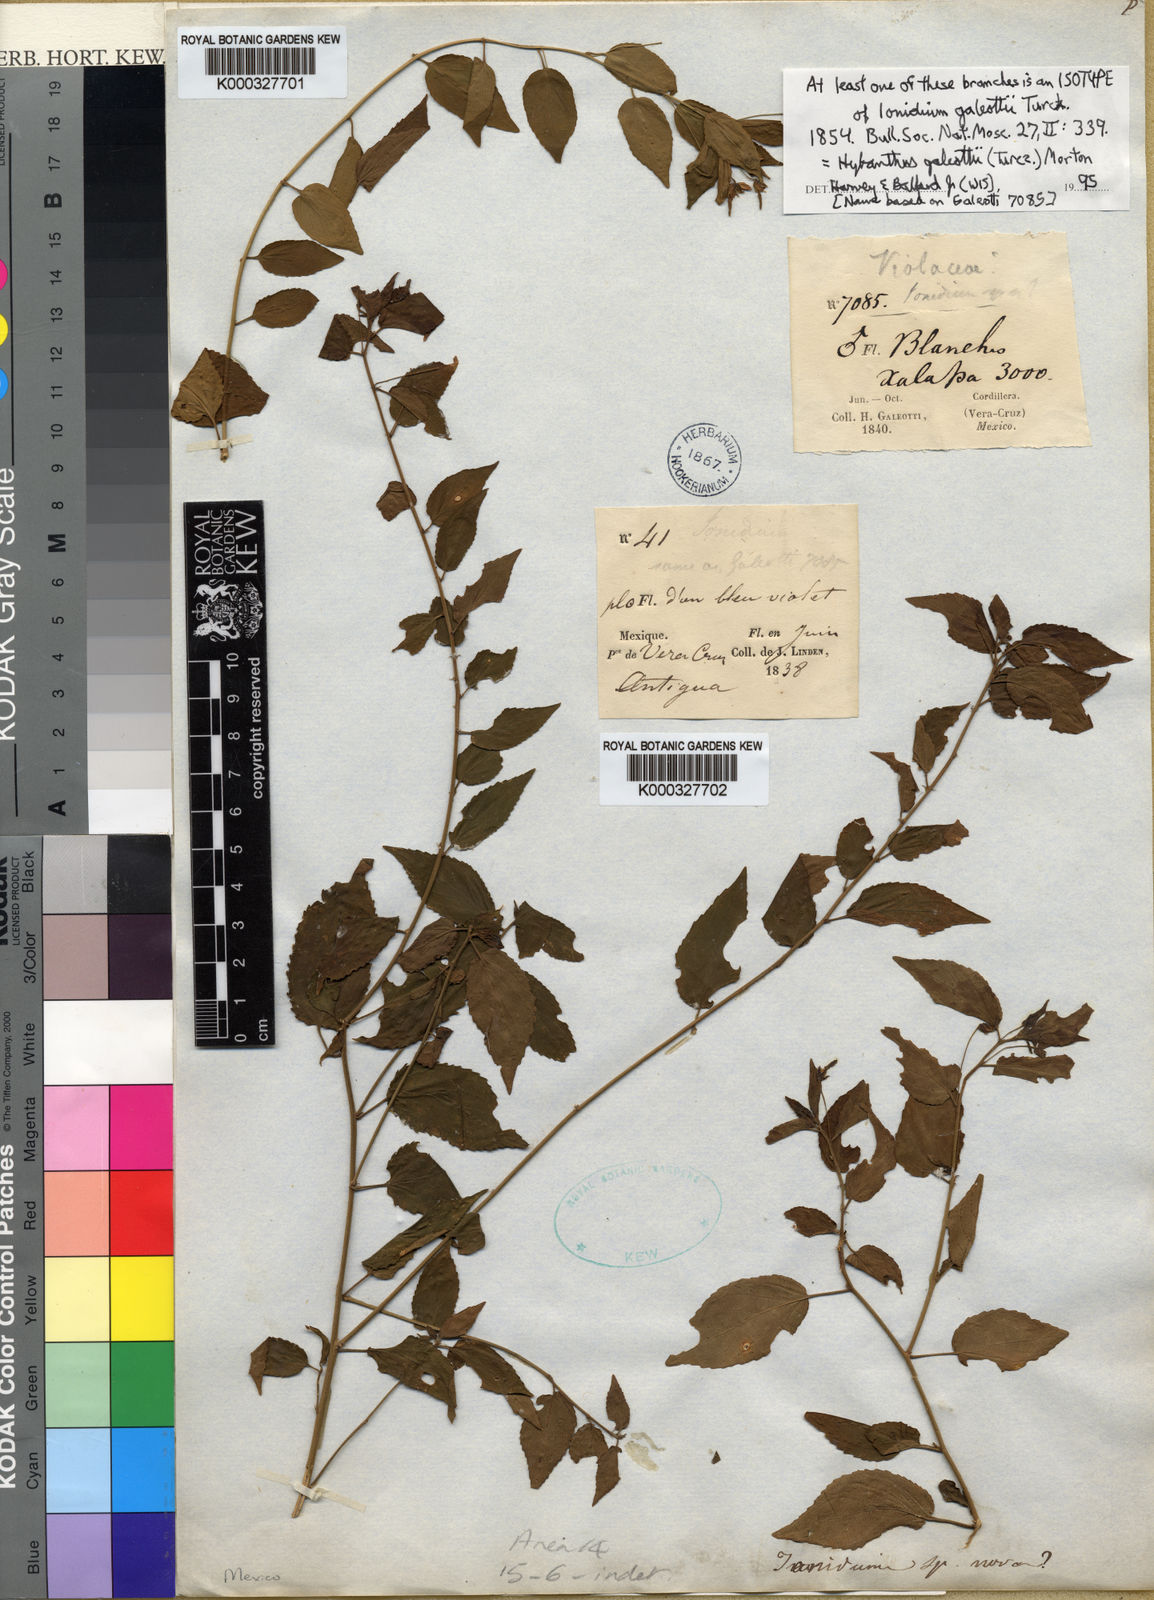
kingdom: Plantae
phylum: Tracheophyta
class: Magnoliopsida
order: Malpighiales
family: Violaceae
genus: Hybanthus
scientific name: Hybanthus galeottii
